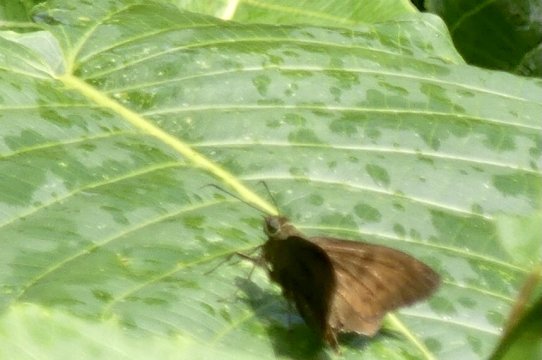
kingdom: Animalia
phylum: Arthropoda
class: Insecta
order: Lepidoptera
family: Hesperiidae
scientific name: Hesperiidae
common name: Skippers
